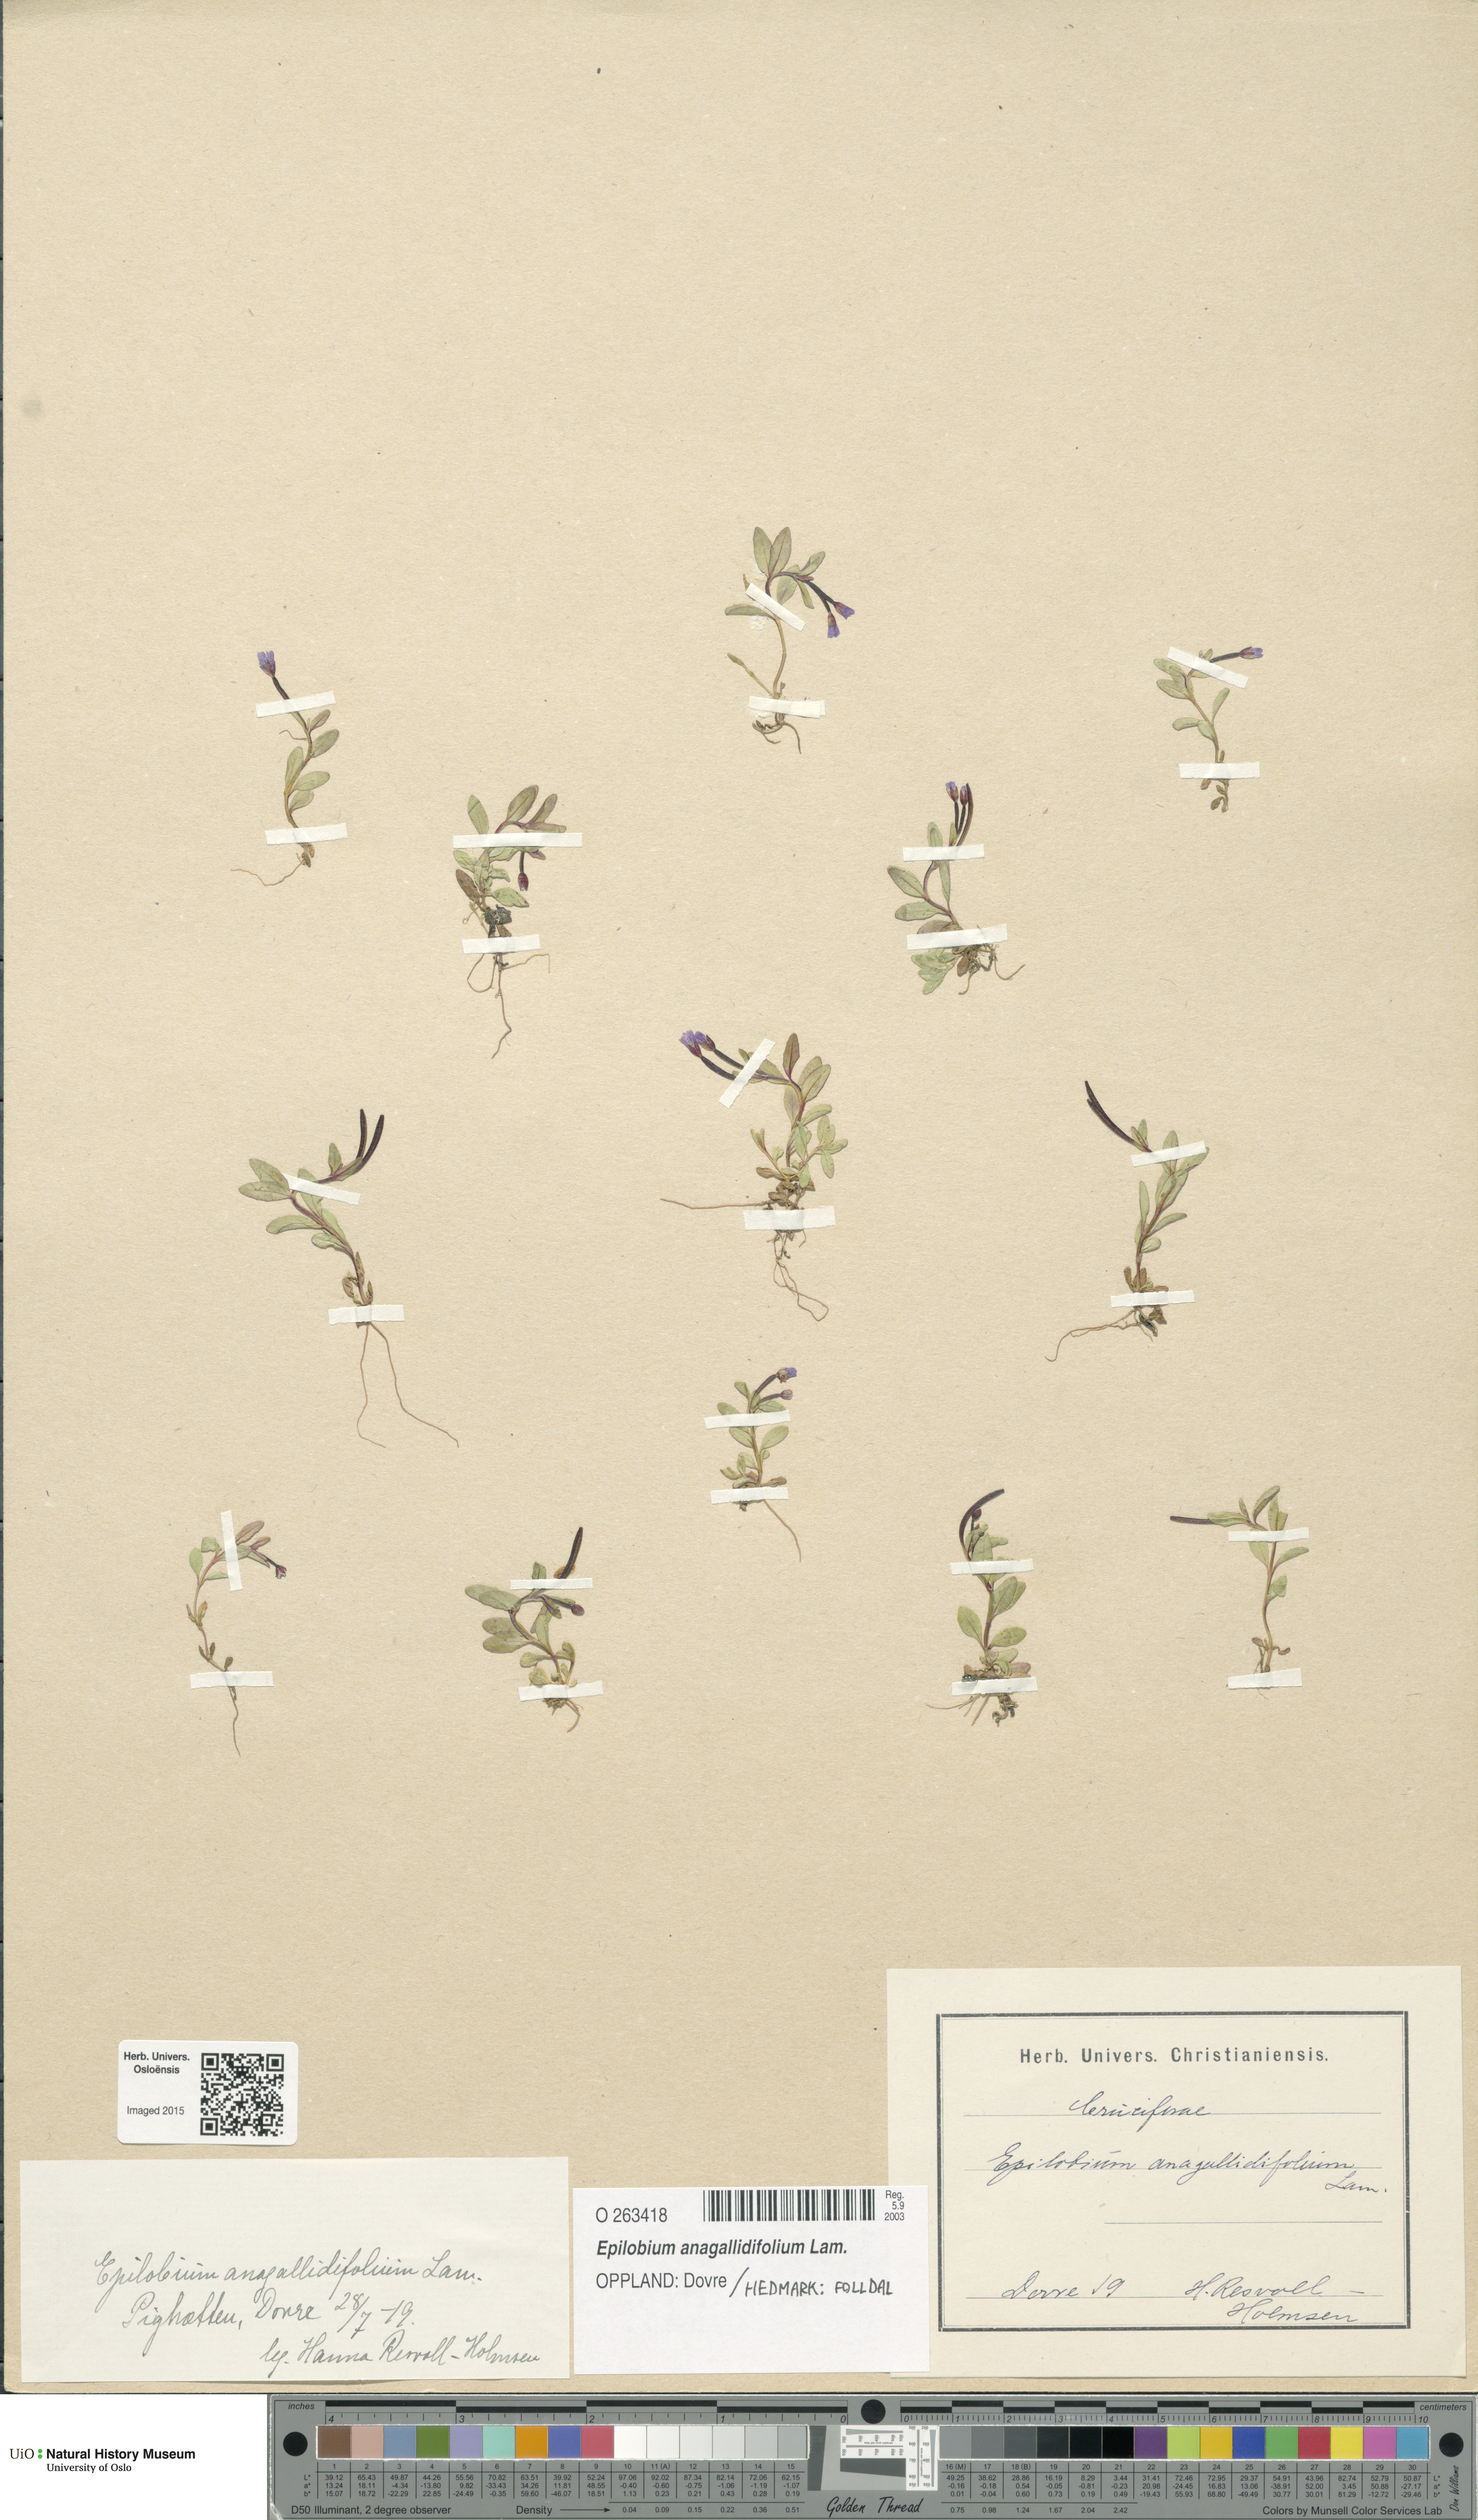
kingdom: Plantae
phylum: Tracheophyta
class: Magnoliopsida
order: Myrtales
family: Onagraceae
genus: Epilobium
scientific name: Epilobium anagallidifolium
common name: Alpine willowherb
